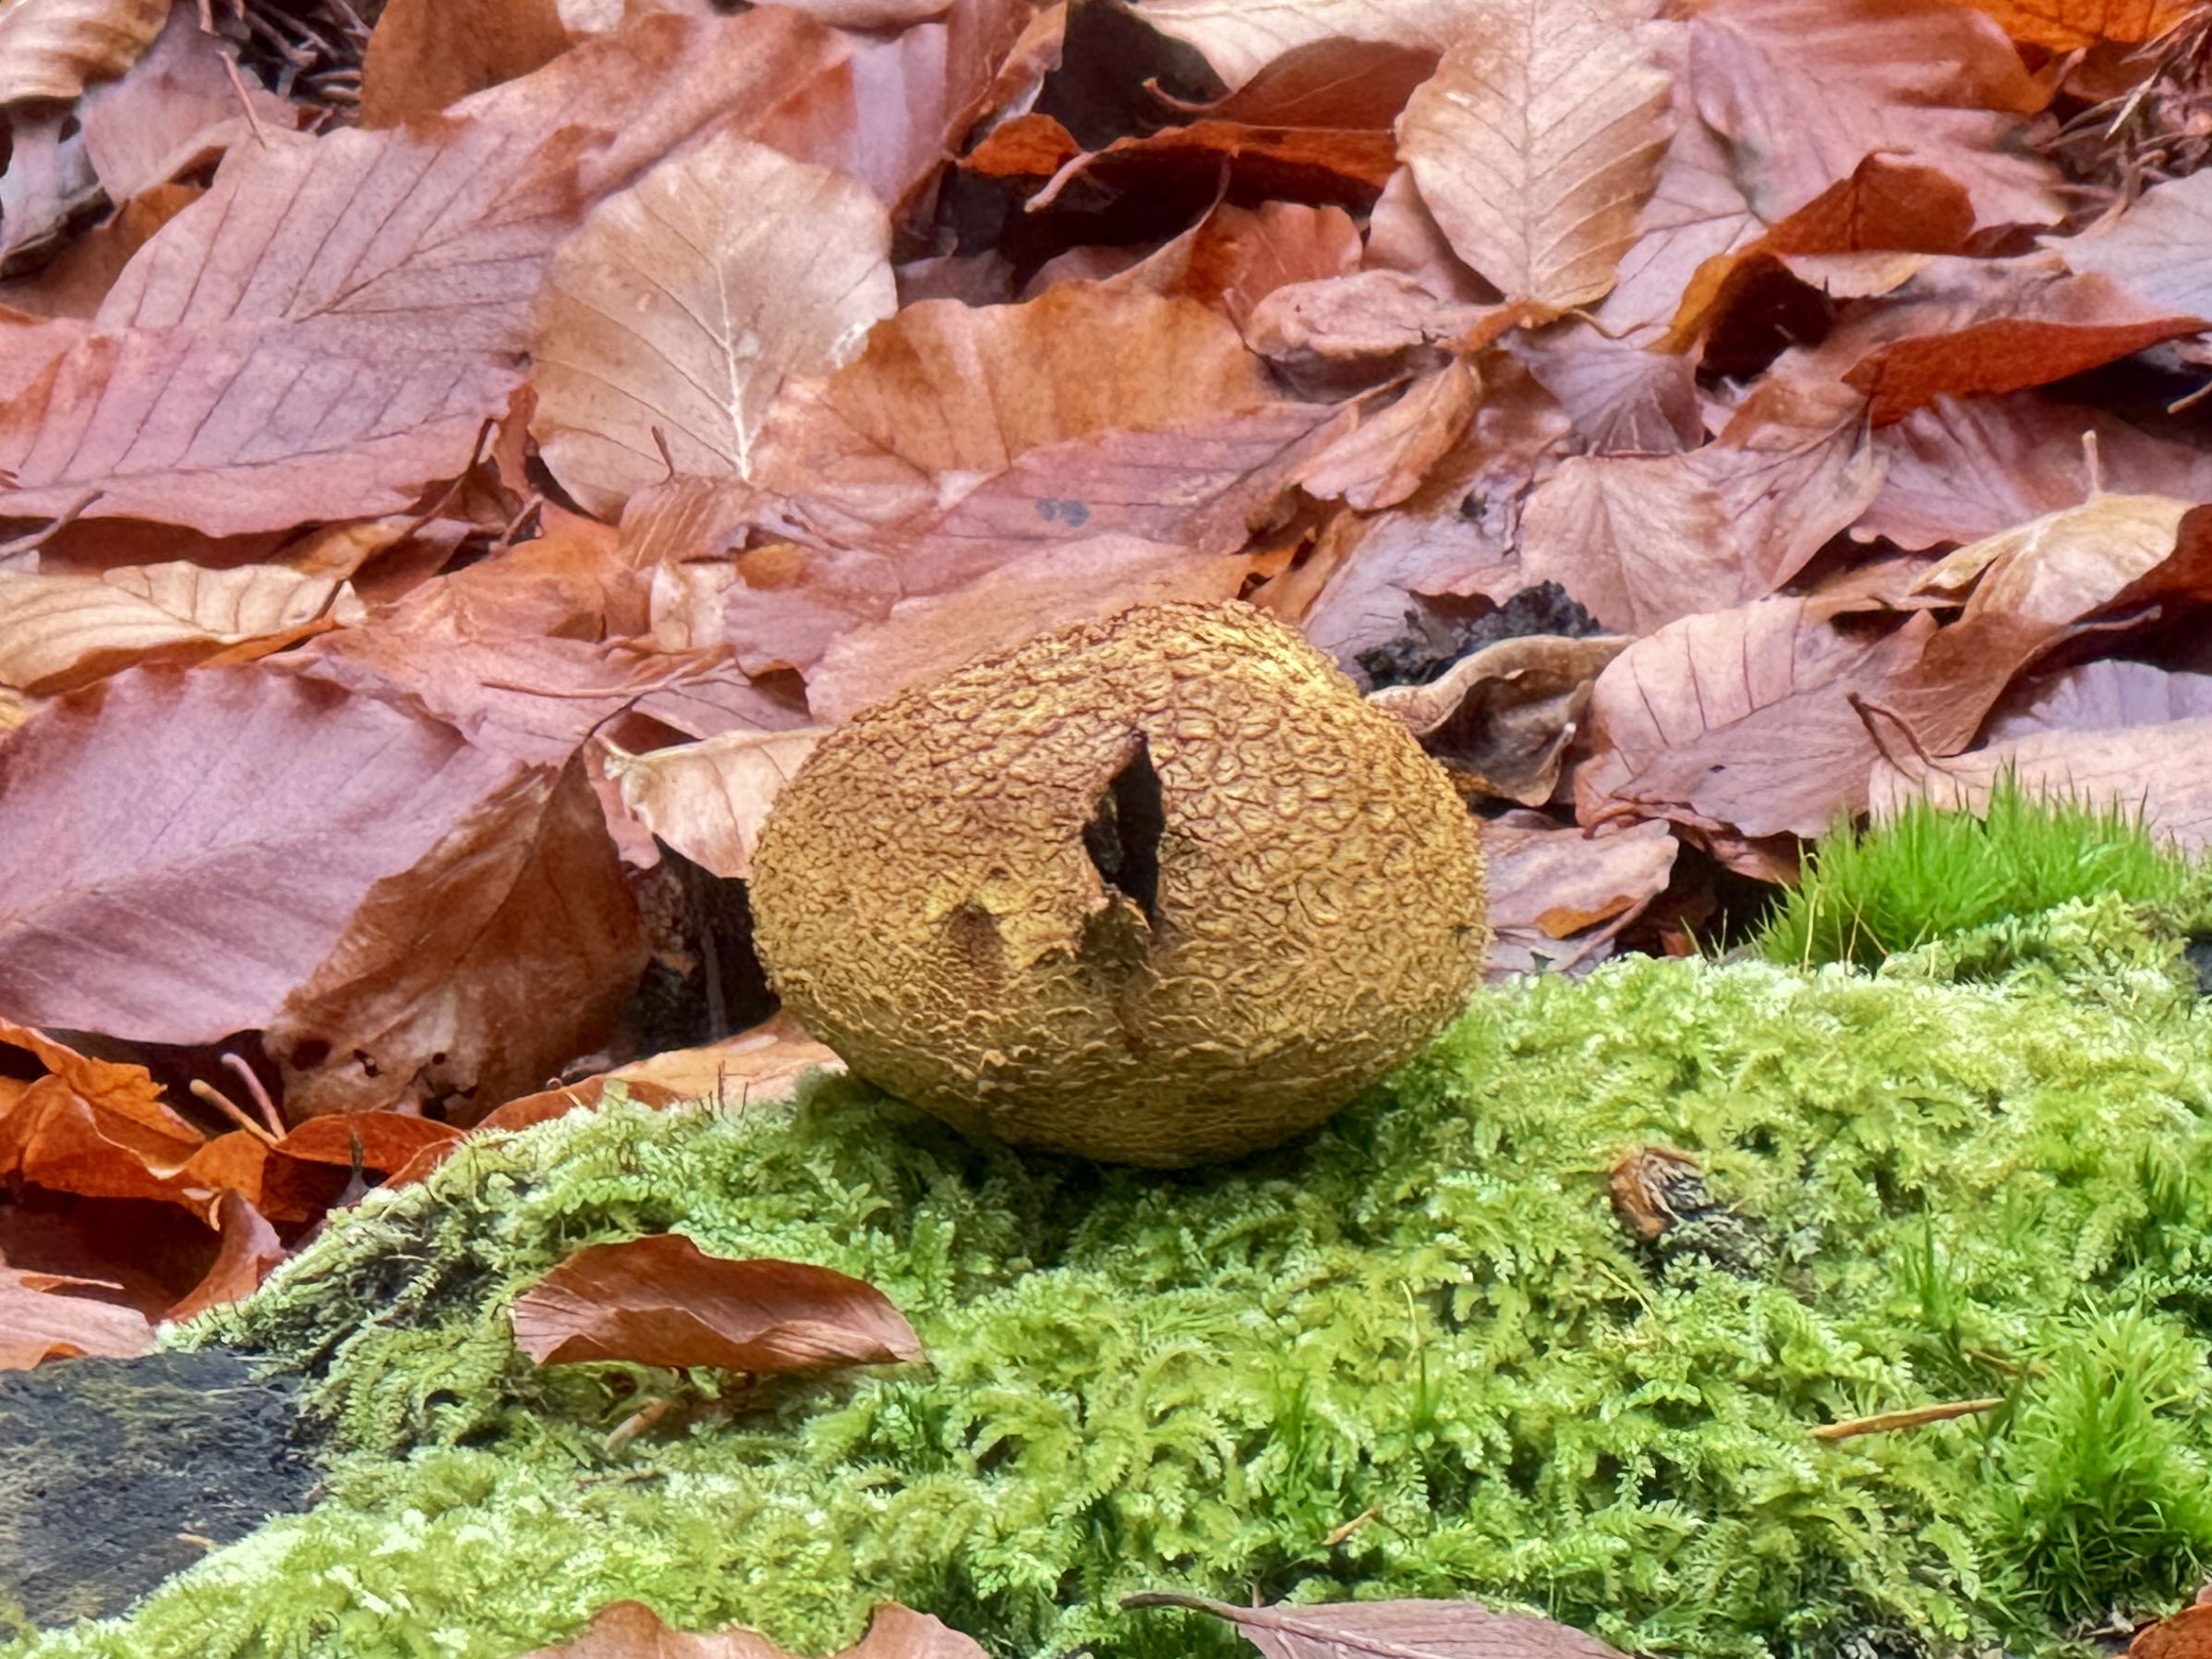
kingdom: Fungi
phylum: Basidiomycota
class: Agaricomycetes
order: Boletales
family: Sclerodermataceae
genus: Scleroderma
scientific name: Scleroderma citrinum
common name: almindelig bruskbold
